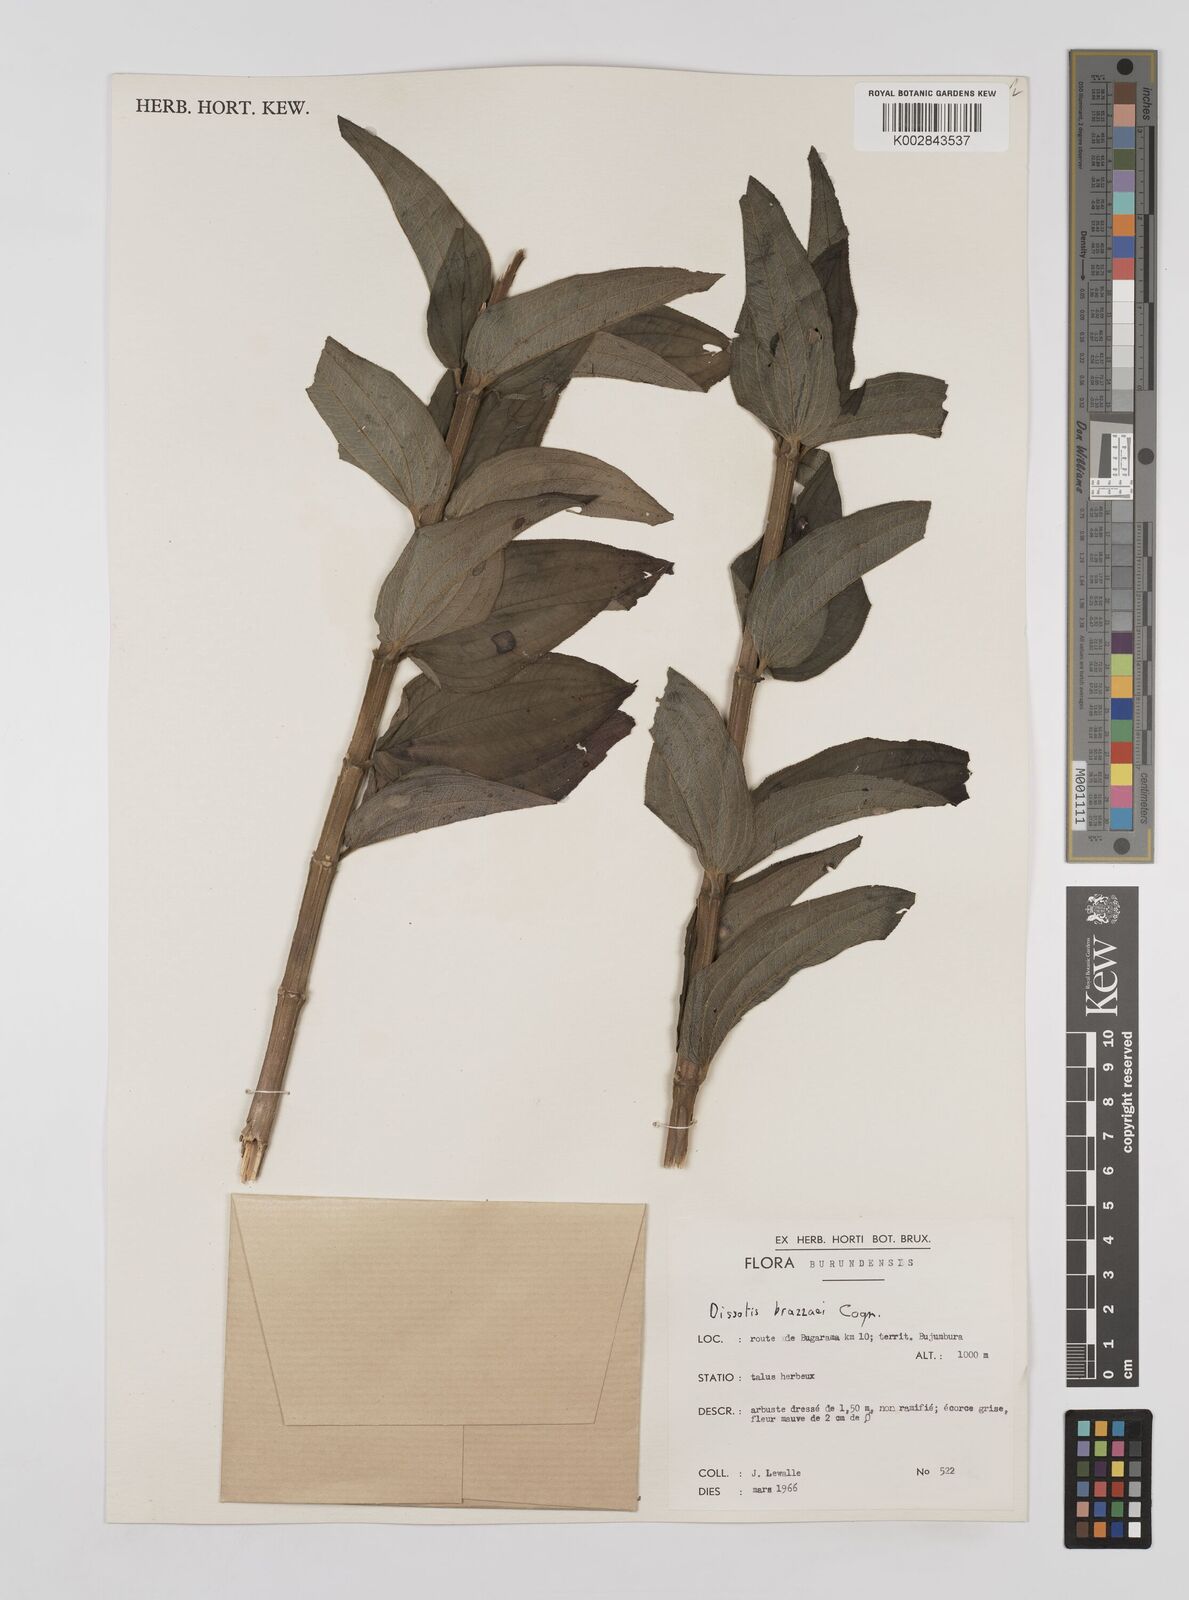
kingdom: Plantae
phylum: Tracheophyta
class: Magnoliopsida
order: Myrtales
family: Melastomataceae
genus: Dupineta
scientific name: Dupineta brazzae
